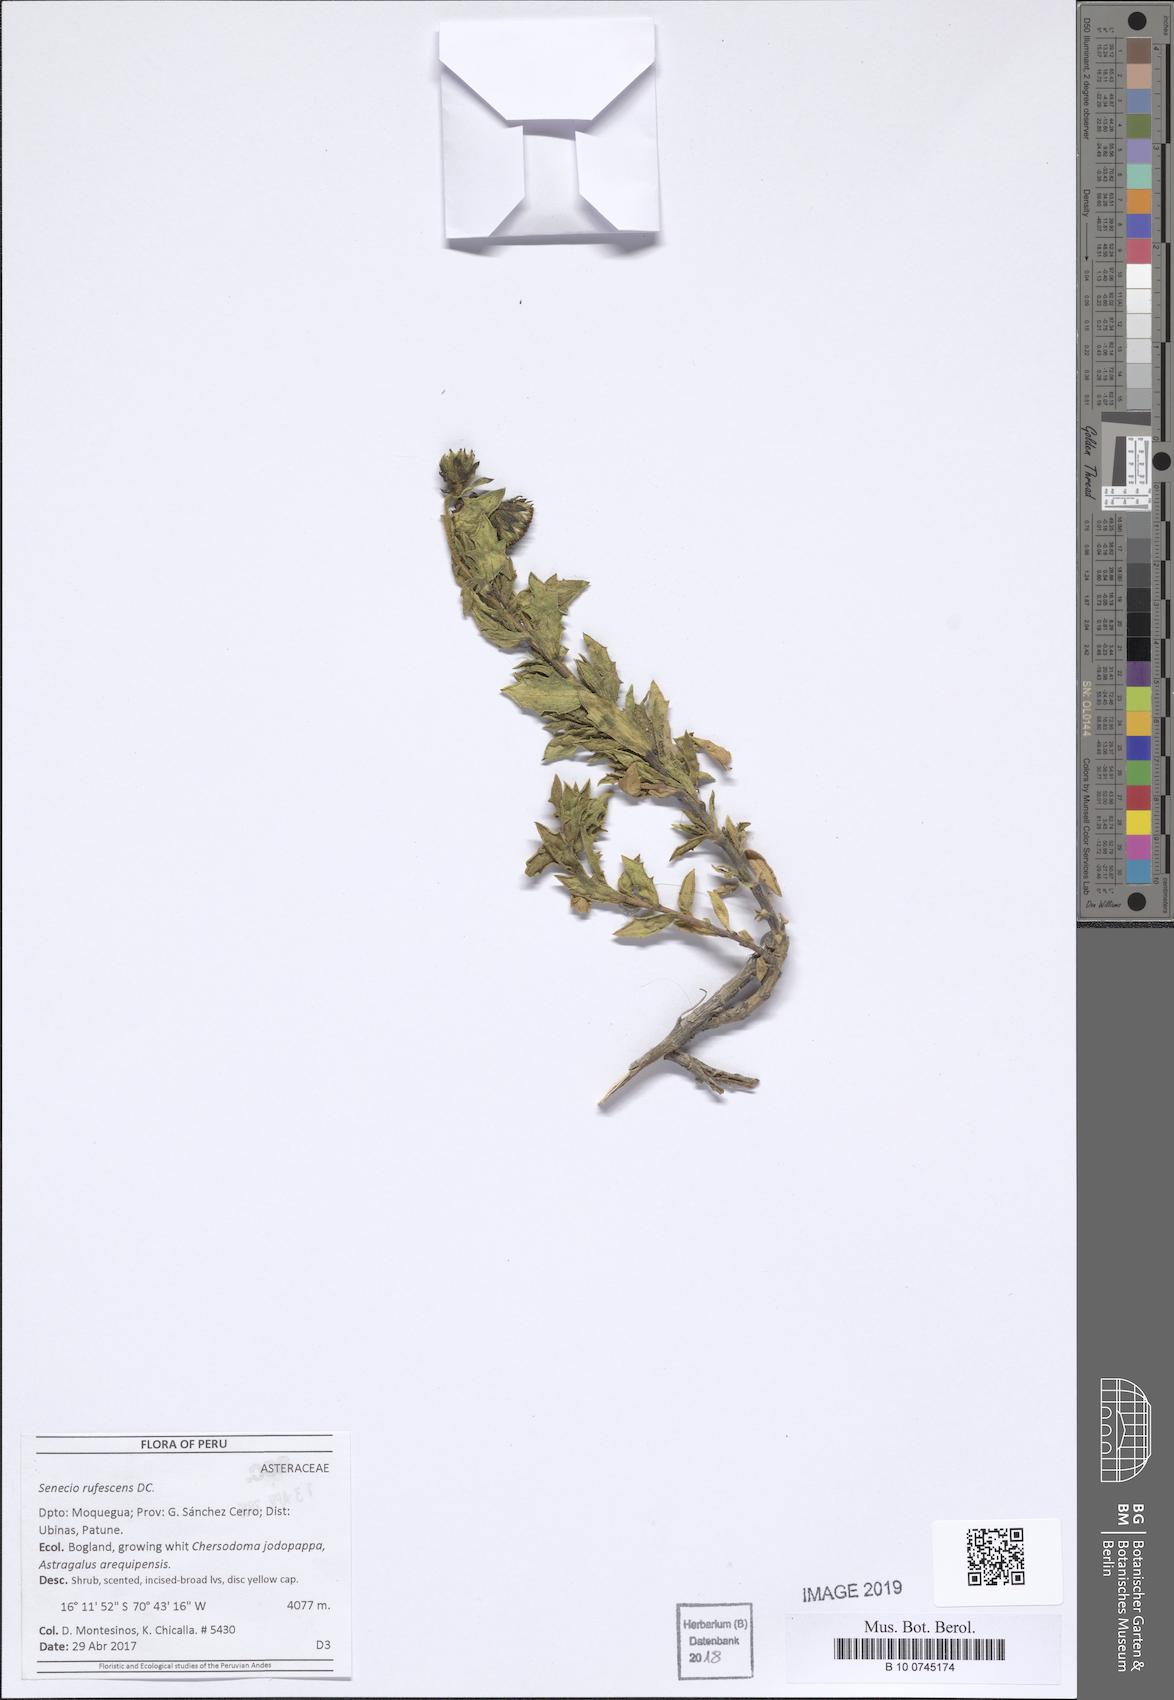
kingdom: Plantae
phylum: Tracheophyta
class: Magnoliopsida
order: Asterales
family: Asteraceae
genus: Senecio
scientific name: Senecio adenophyllus
